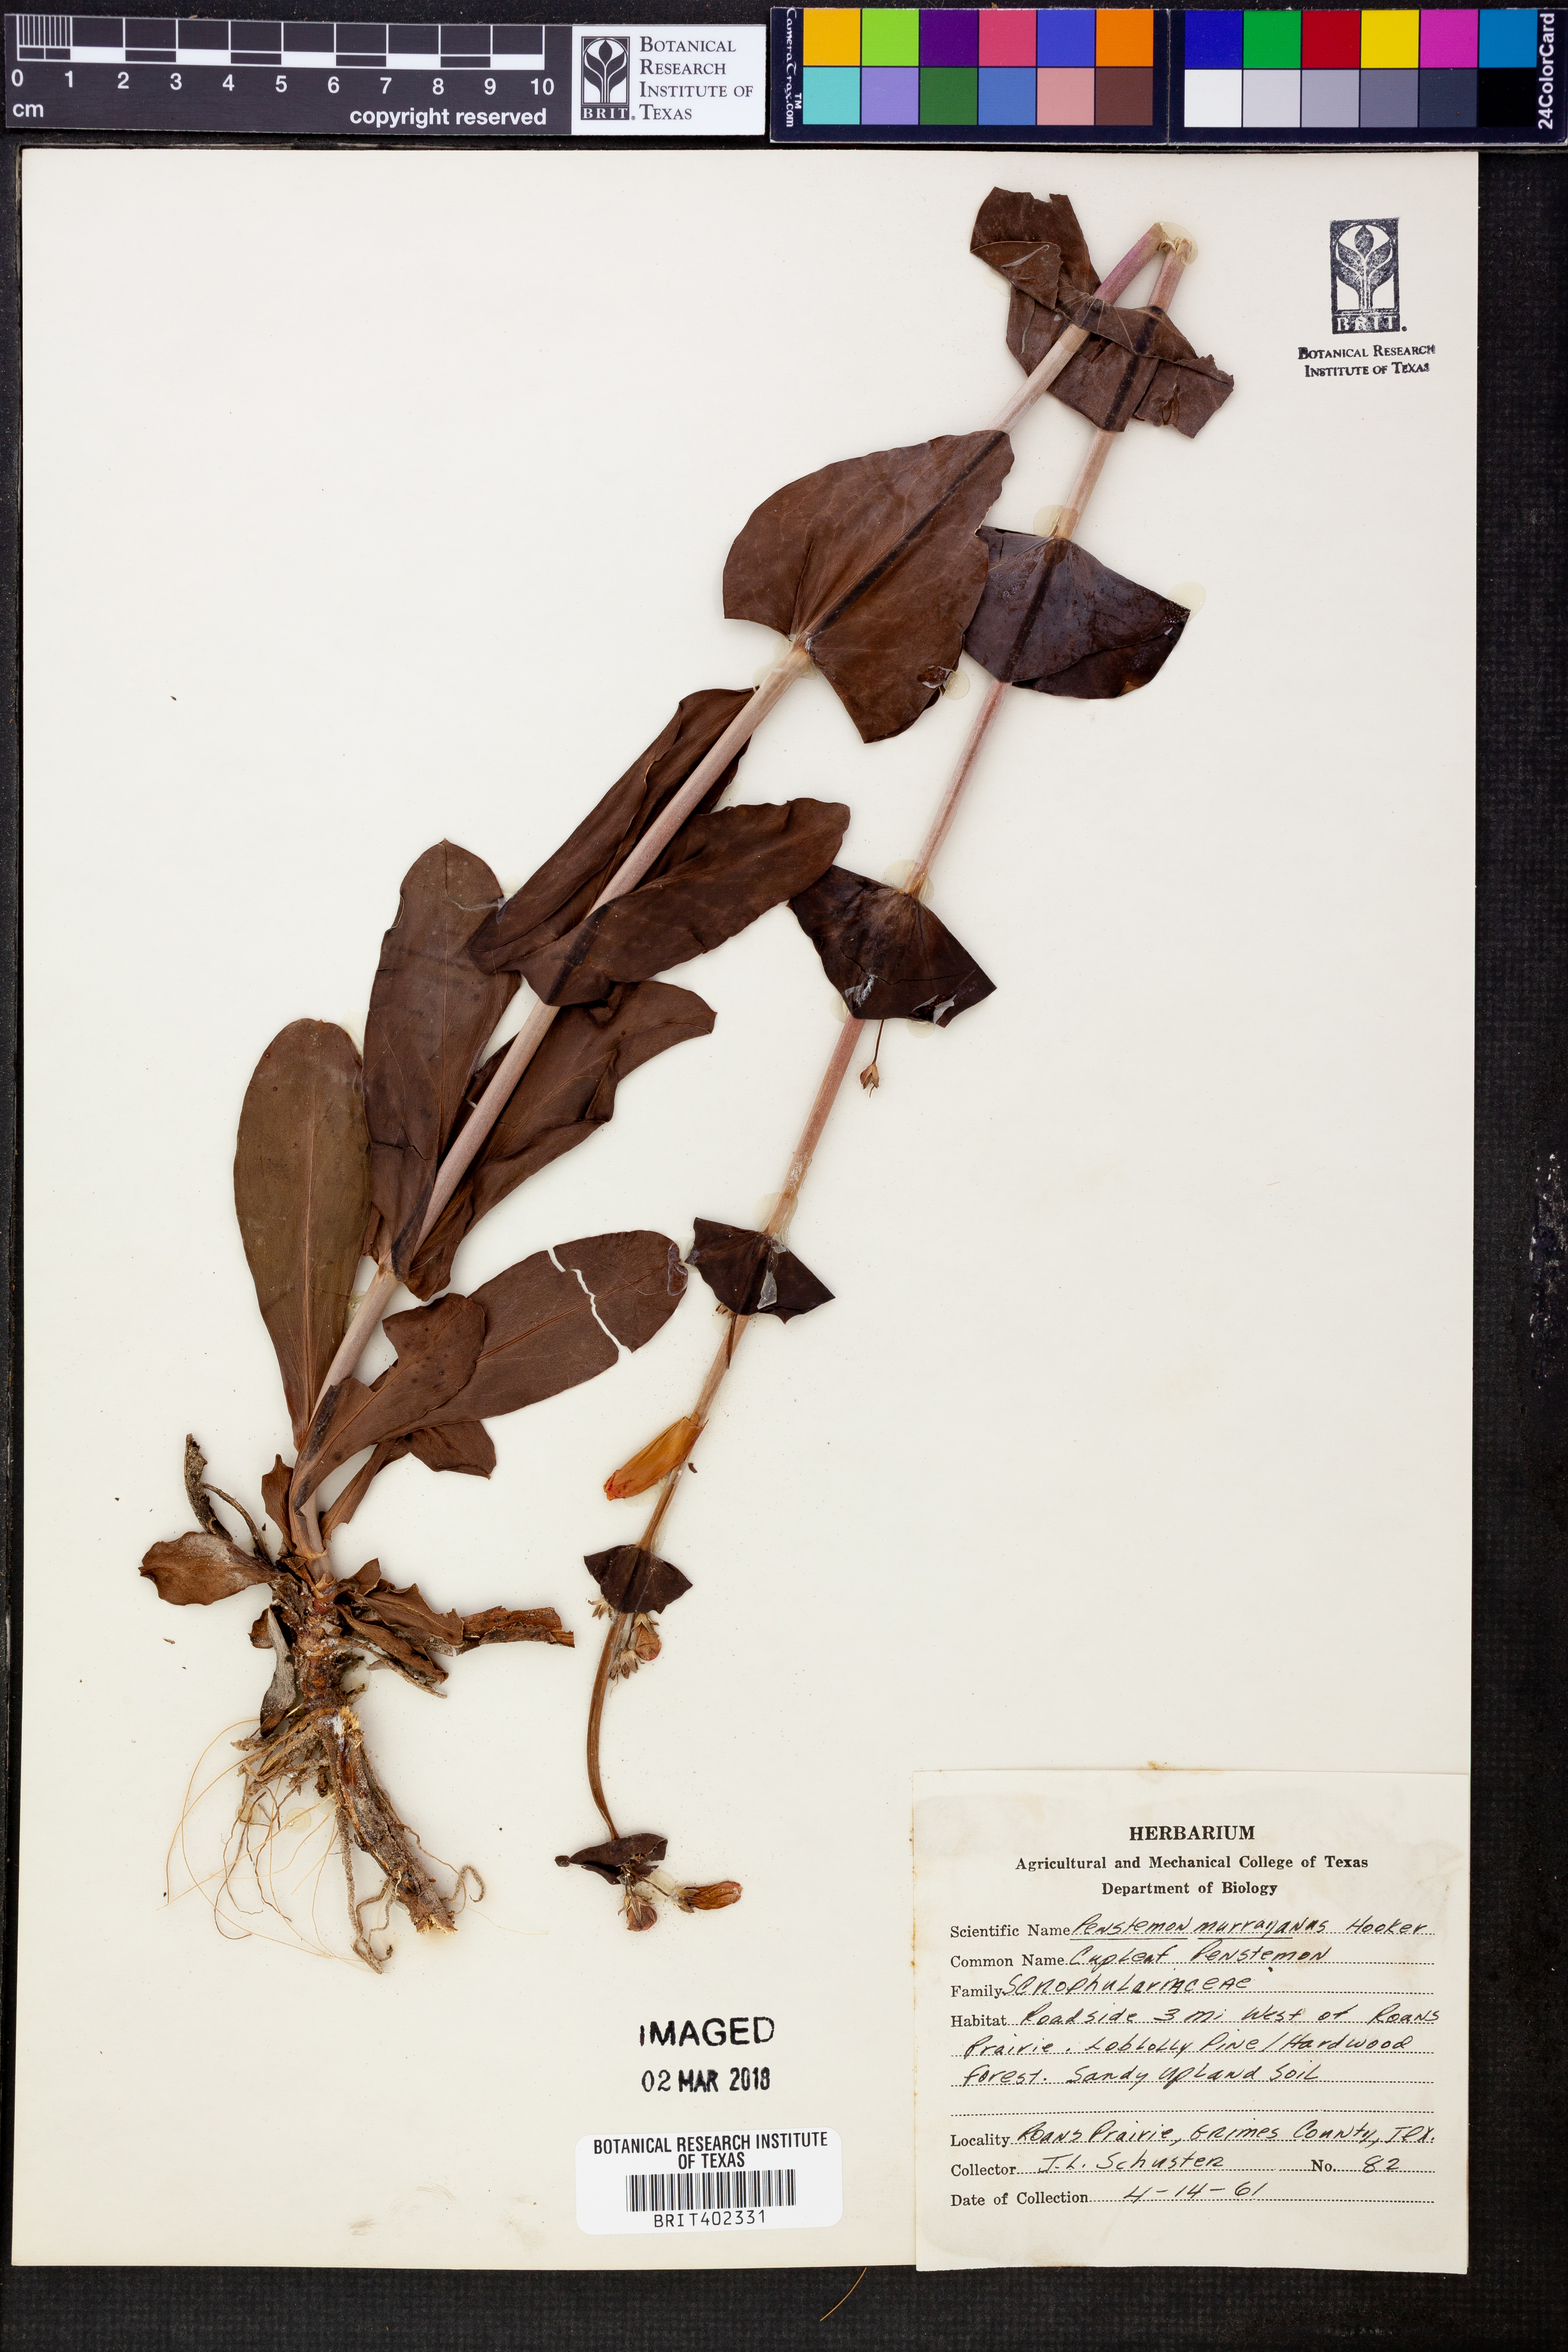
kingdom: Plantae
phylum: Tracheophyta
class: Magnoliopsida
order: Lamiales
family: Plantaginaceae
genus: Penstemon
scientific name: Penstemon murrayanus
